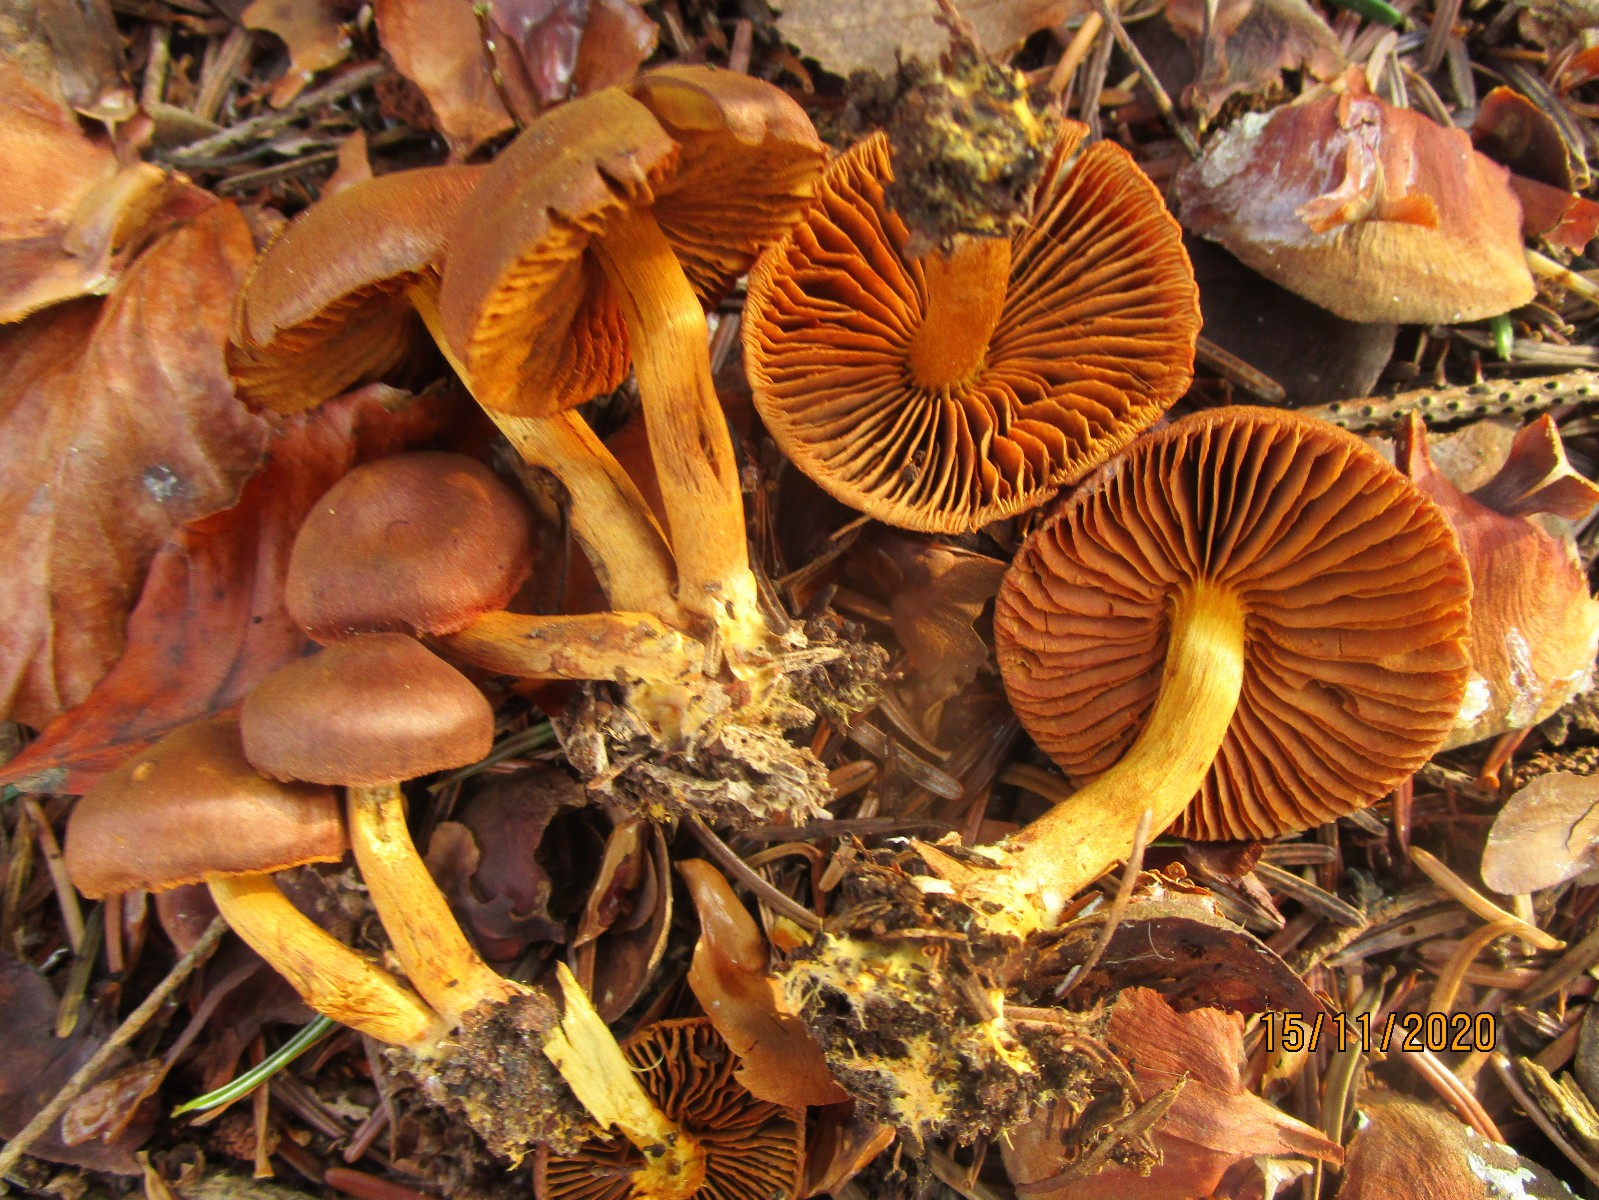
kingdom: Fungi
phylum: Basidiomycota
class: Agaricomycetes
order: Agaricales
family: Cortinariaceae
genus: Cortinarius
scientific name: Cortinarius
